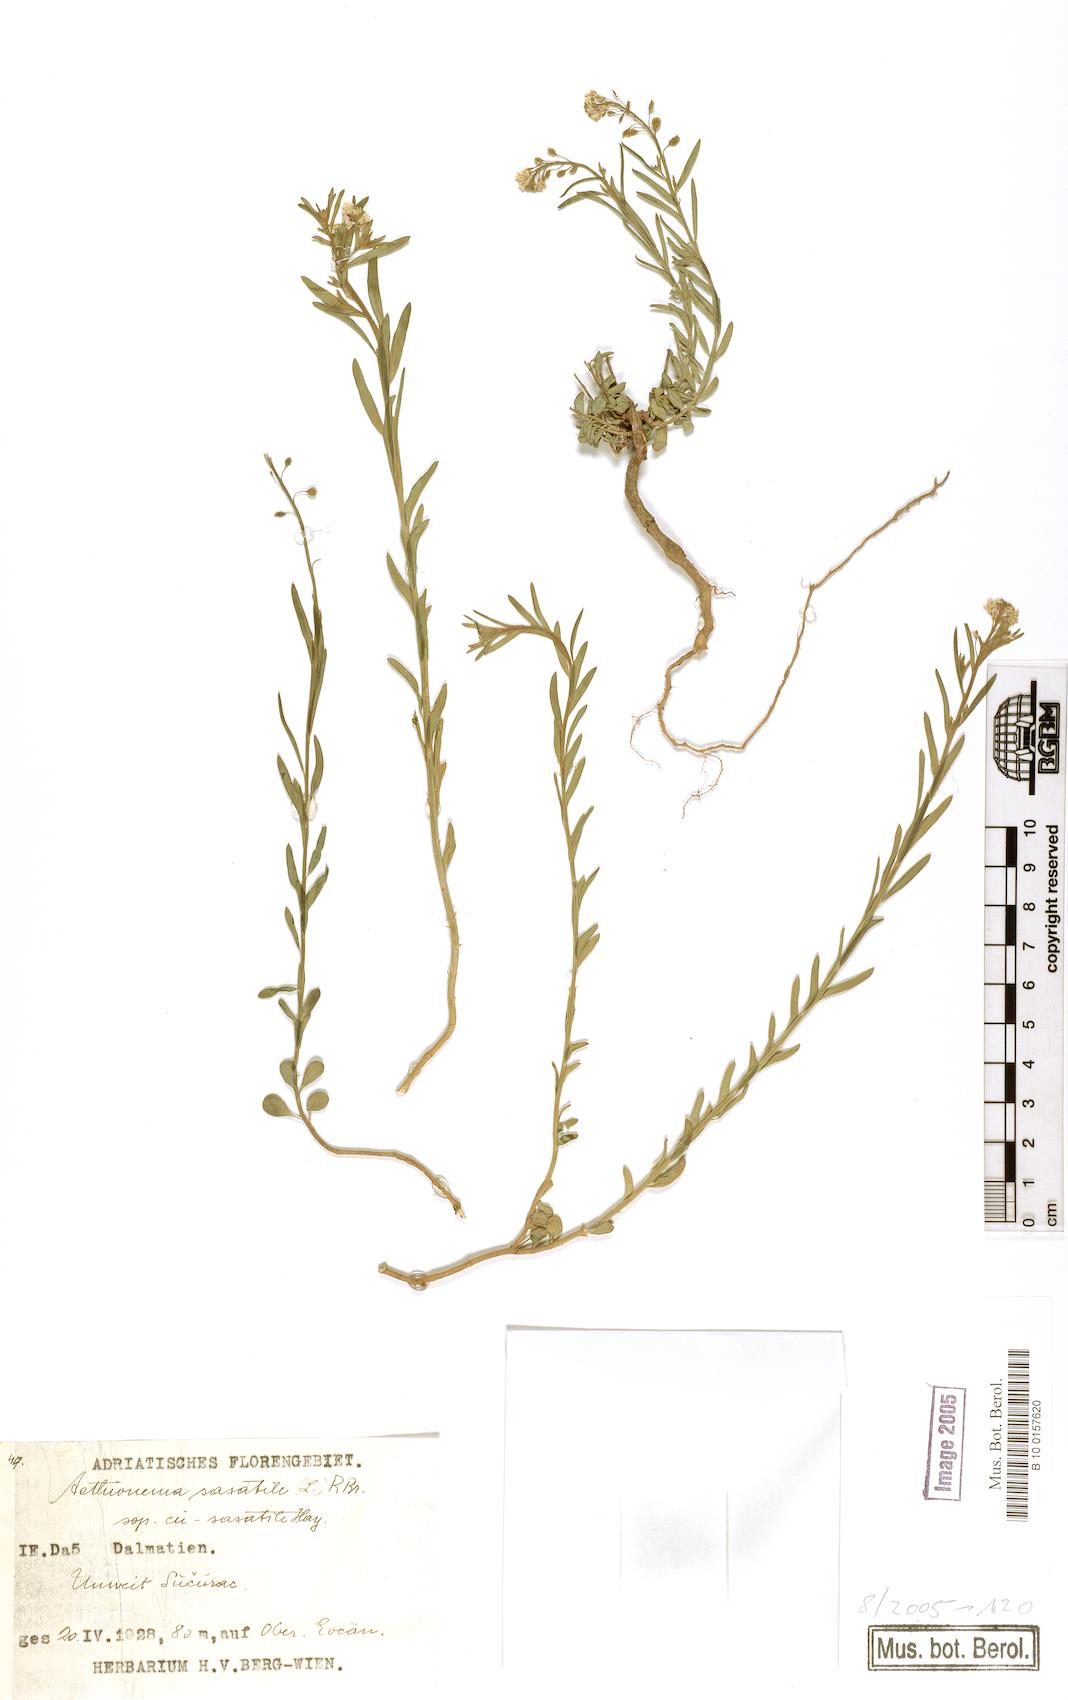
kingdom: Plantae
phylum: Tracheophyta
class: Magnoliopsida
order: Brassicales
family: Brassicaceae
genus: Aethionema
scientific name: Aethionema saxatile
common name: Burnt candytuft
